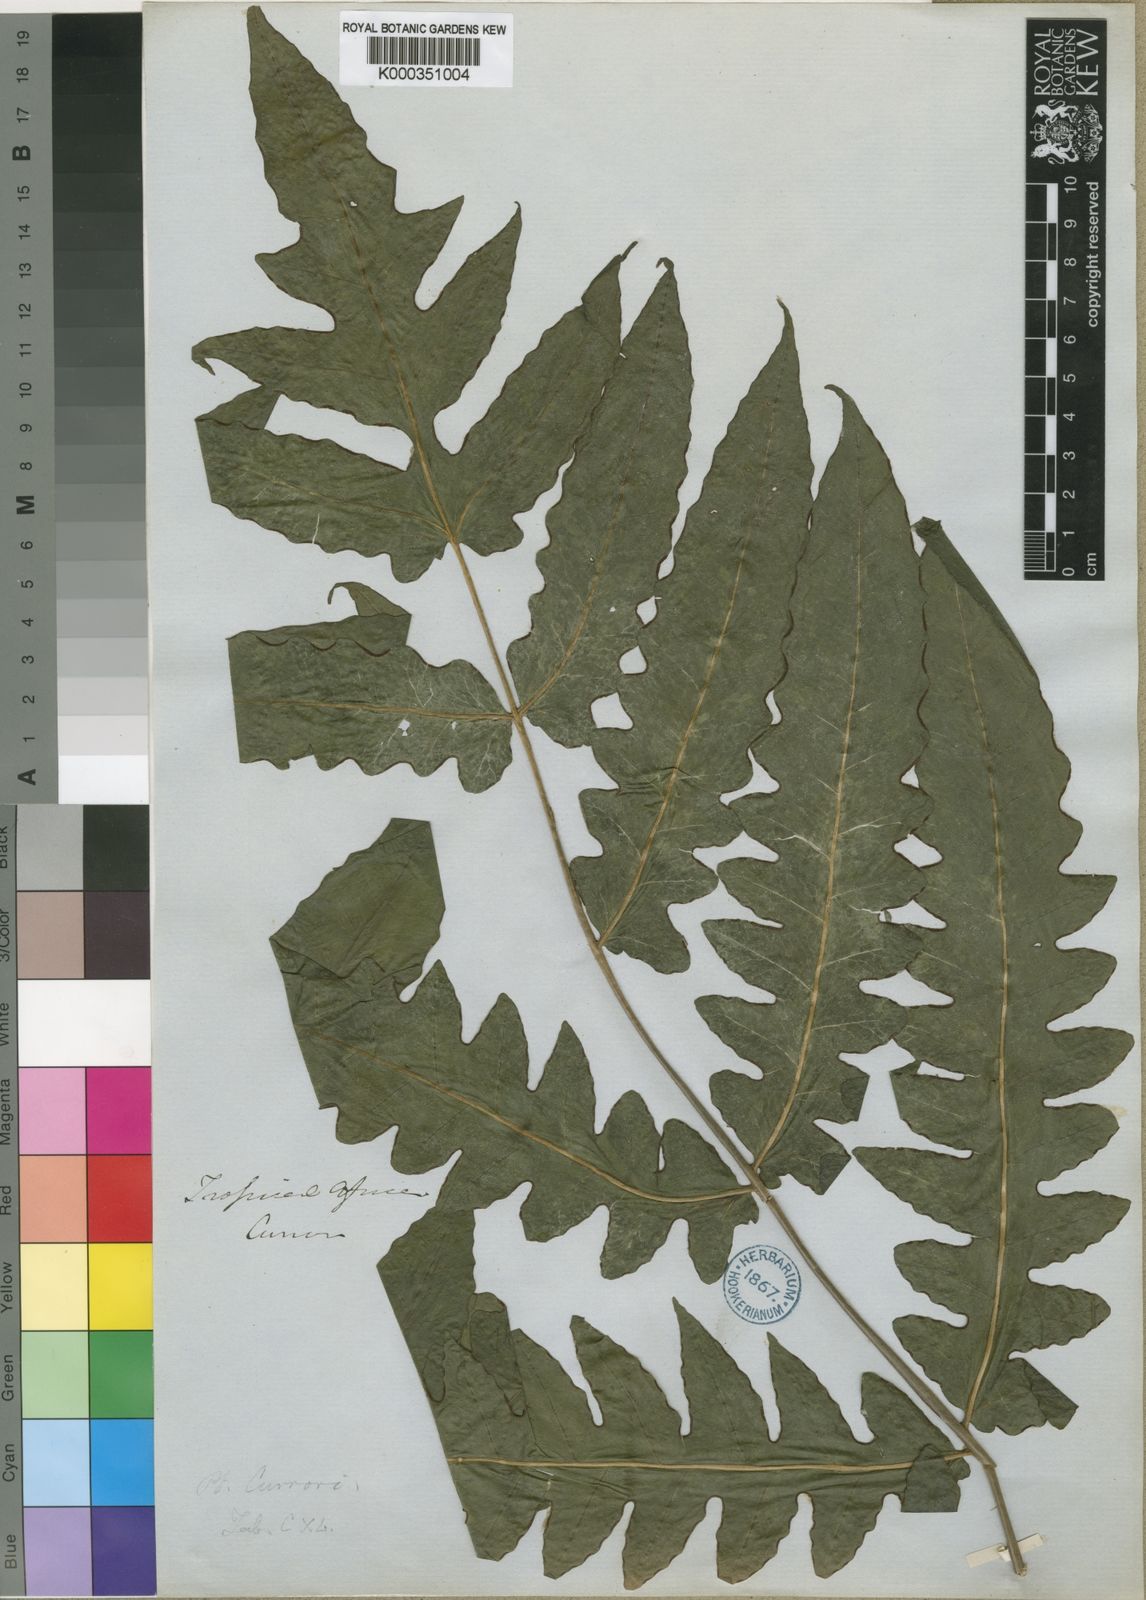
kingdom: Plantae
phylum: Tracheophyta
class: Polypodiopsida
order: Polypodiales
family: Dennstaedtiaceae
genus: Blotiella
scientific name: Blotiella currorii
